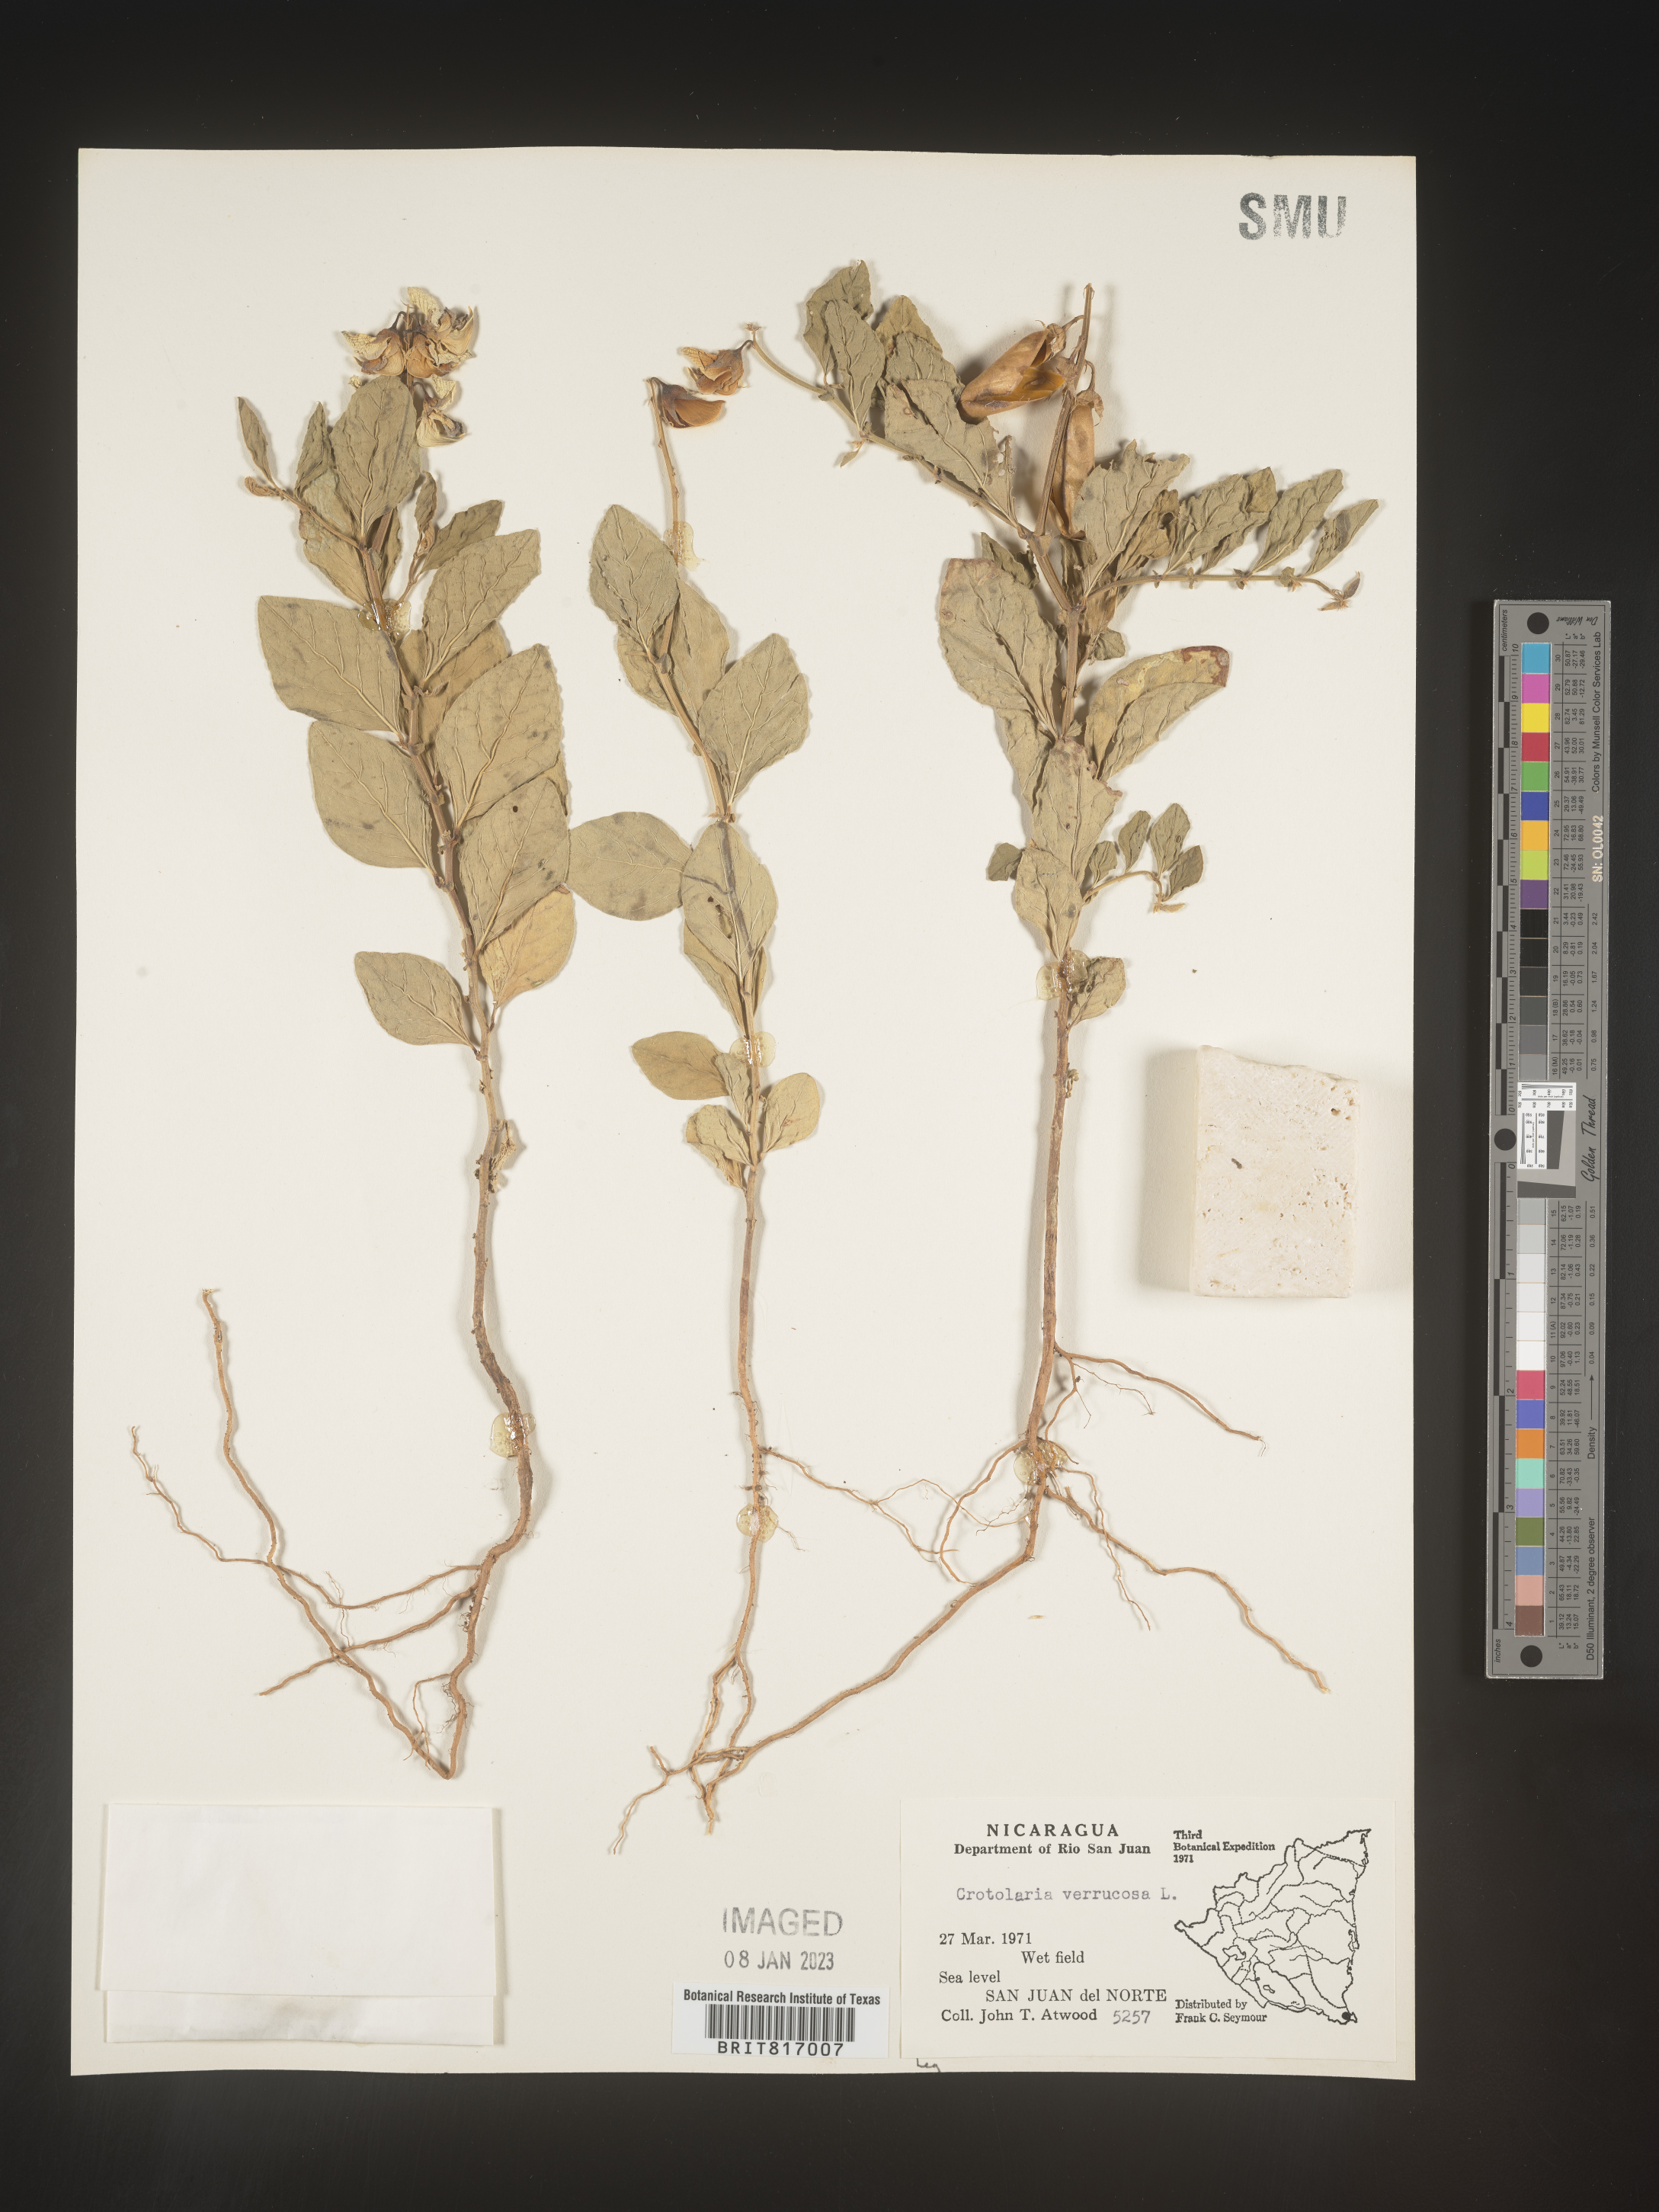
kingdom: Plantae
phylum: Tracheophyta
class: Magnoliopsida
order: Fabales
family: Fabaceae
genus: Crotalaria
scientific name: Crotalaria
